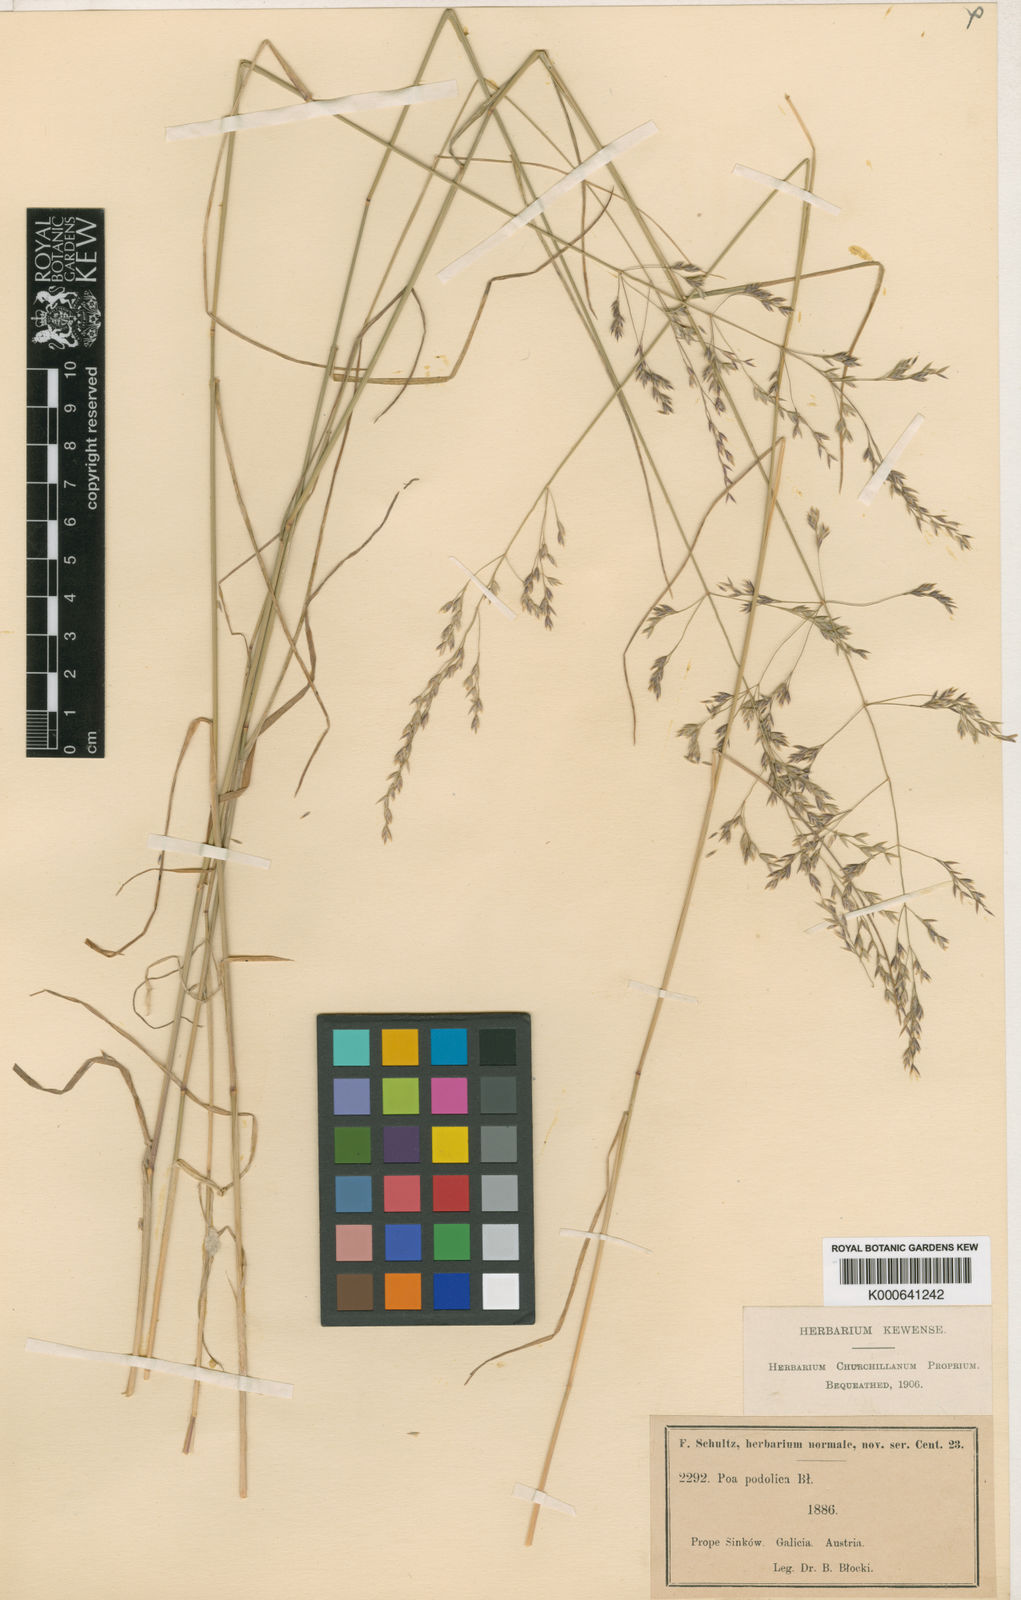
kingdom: Plantae
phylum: Tracheophyta
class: Liliopsida
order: Poales
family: Poaceae
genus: Poa
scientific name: Poa pannonica
